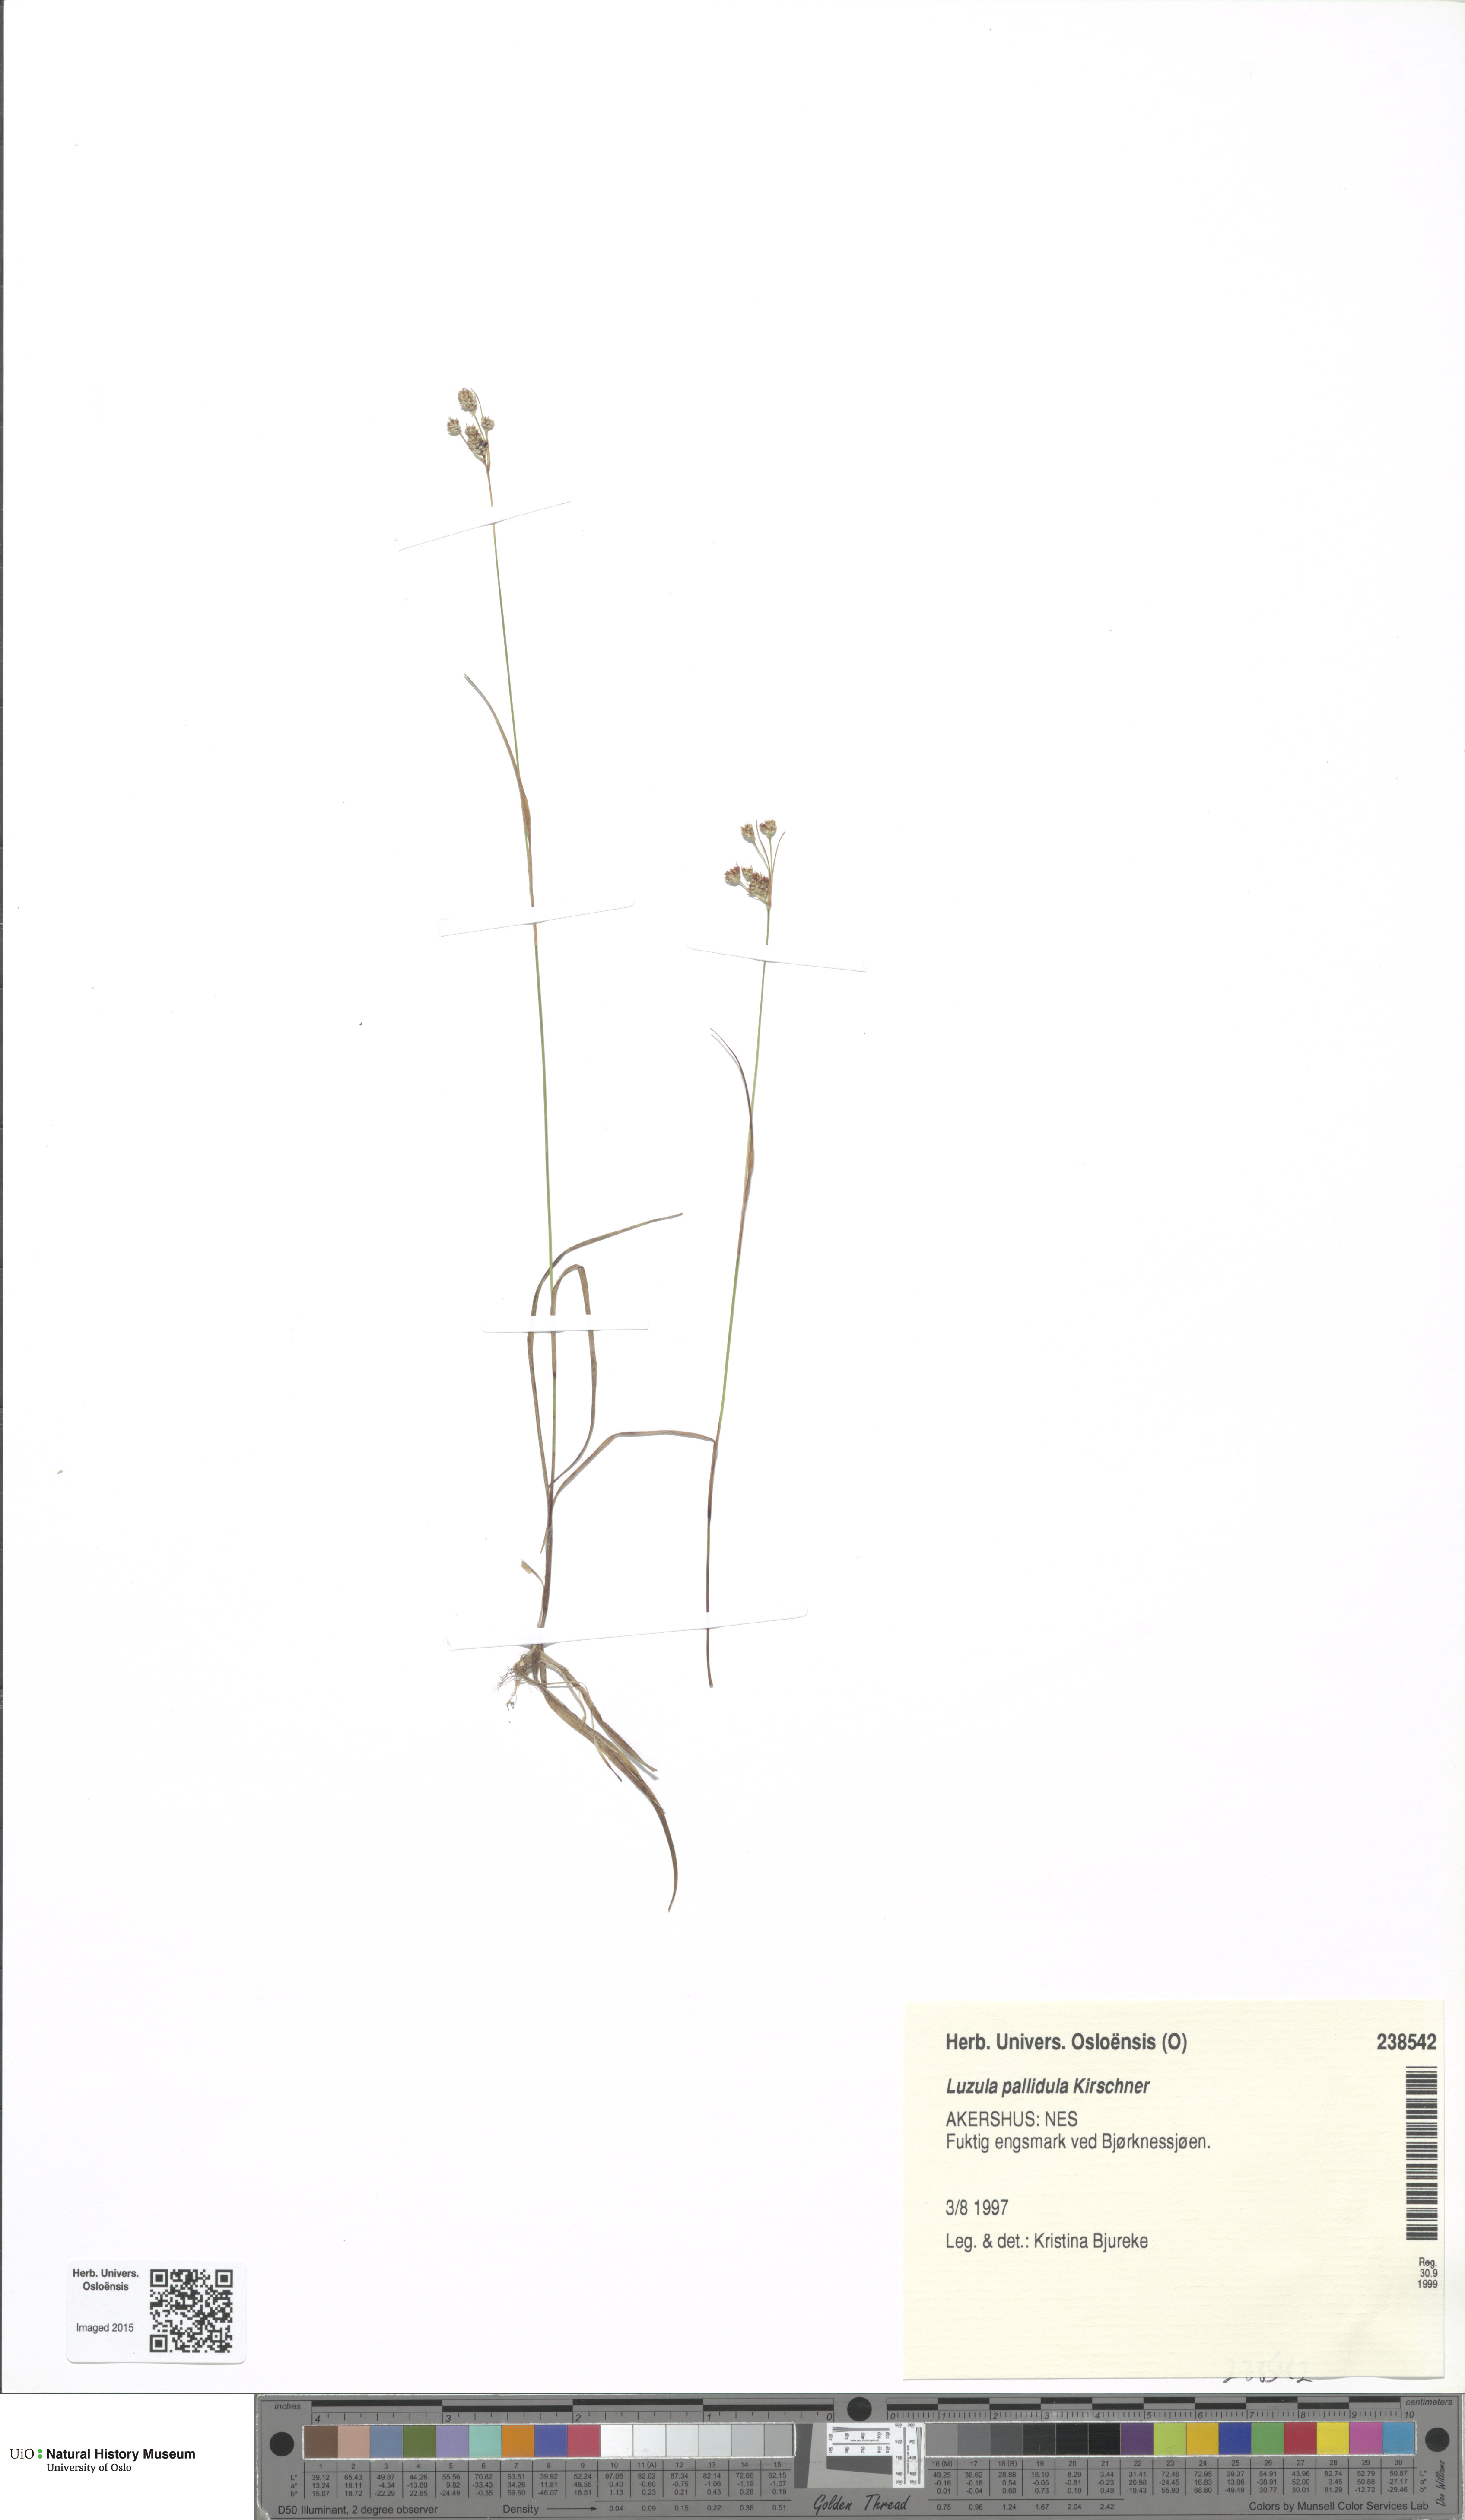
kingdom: Plantae
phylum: Tracheophyta
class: Liliopsida
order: Poales
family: Juncaceae
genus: Luzula
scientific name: Luzula pallescens
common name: Fen wood-rush
